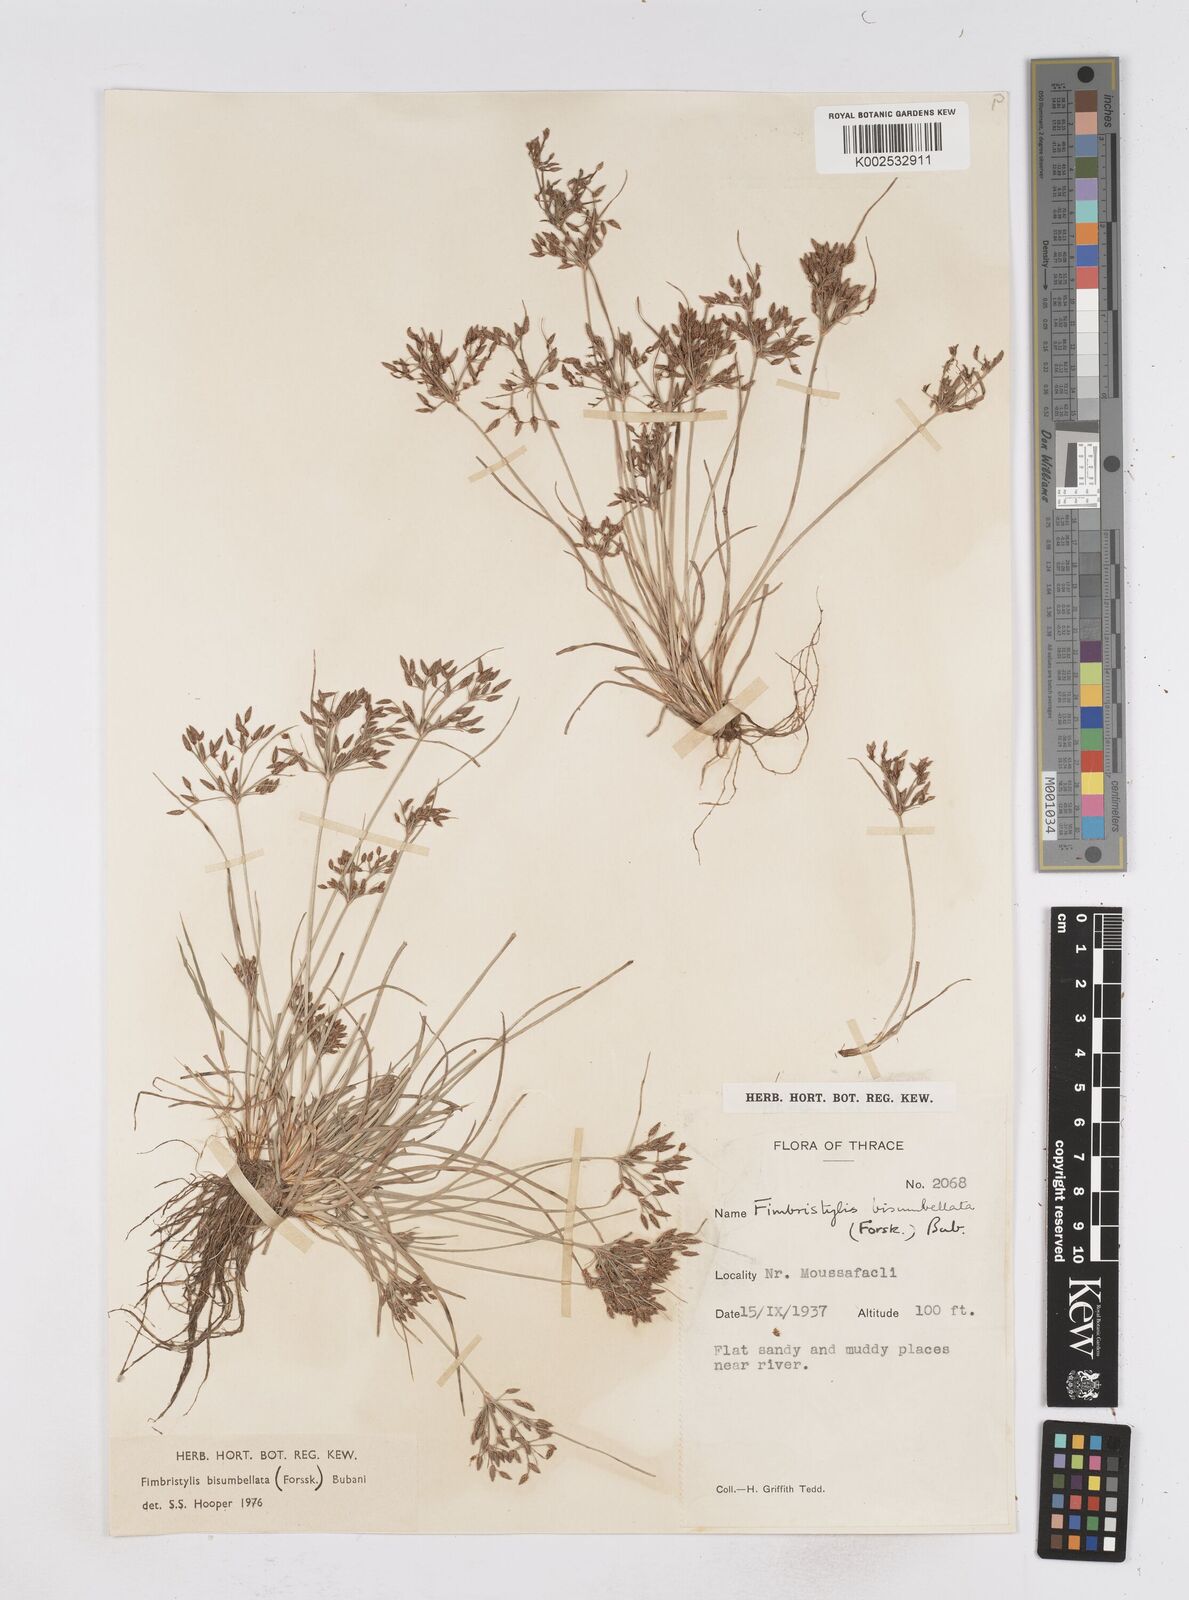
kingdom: Plantae
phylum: Tracheophyta
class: Liliopsida
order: Poales
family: Cyperaceae
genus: Fimbristylis
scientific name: Fimbristylis bisumbellata
